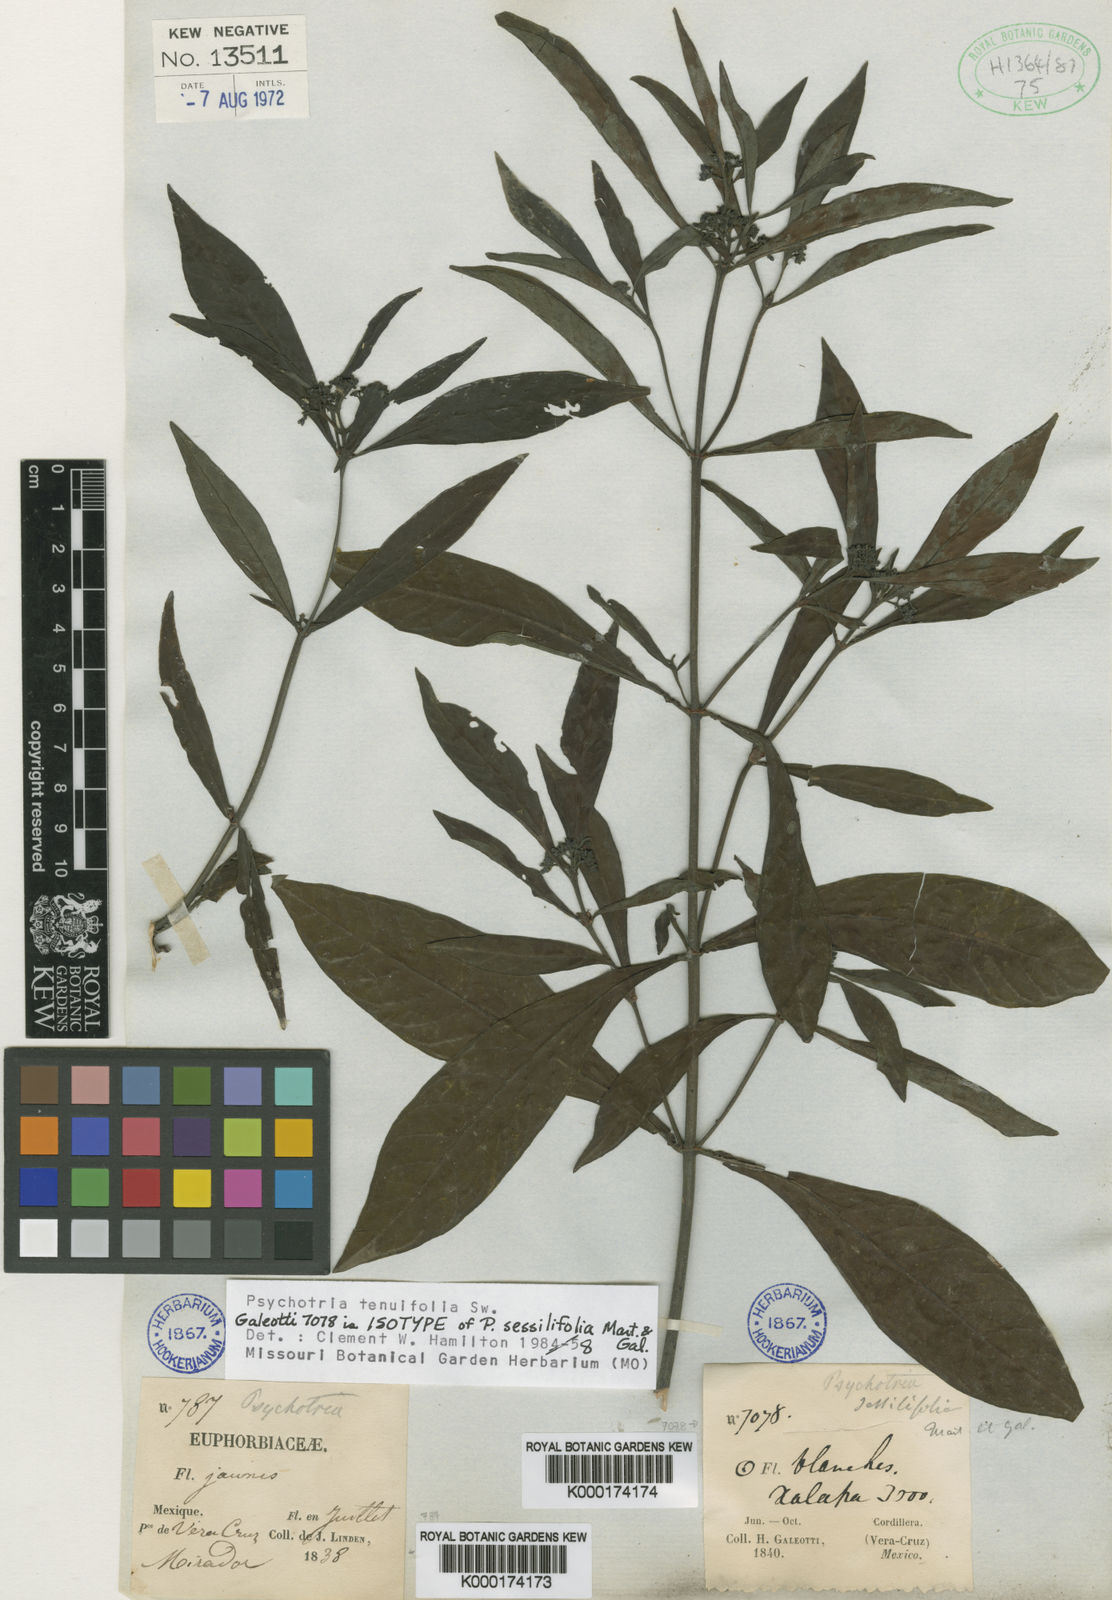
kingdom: Plantae
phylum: Tracheophyta
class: Magnoliopsida
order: Gentianales
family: Rubiaceae
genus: Psychotria
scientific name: Psychotria tenuifolia
